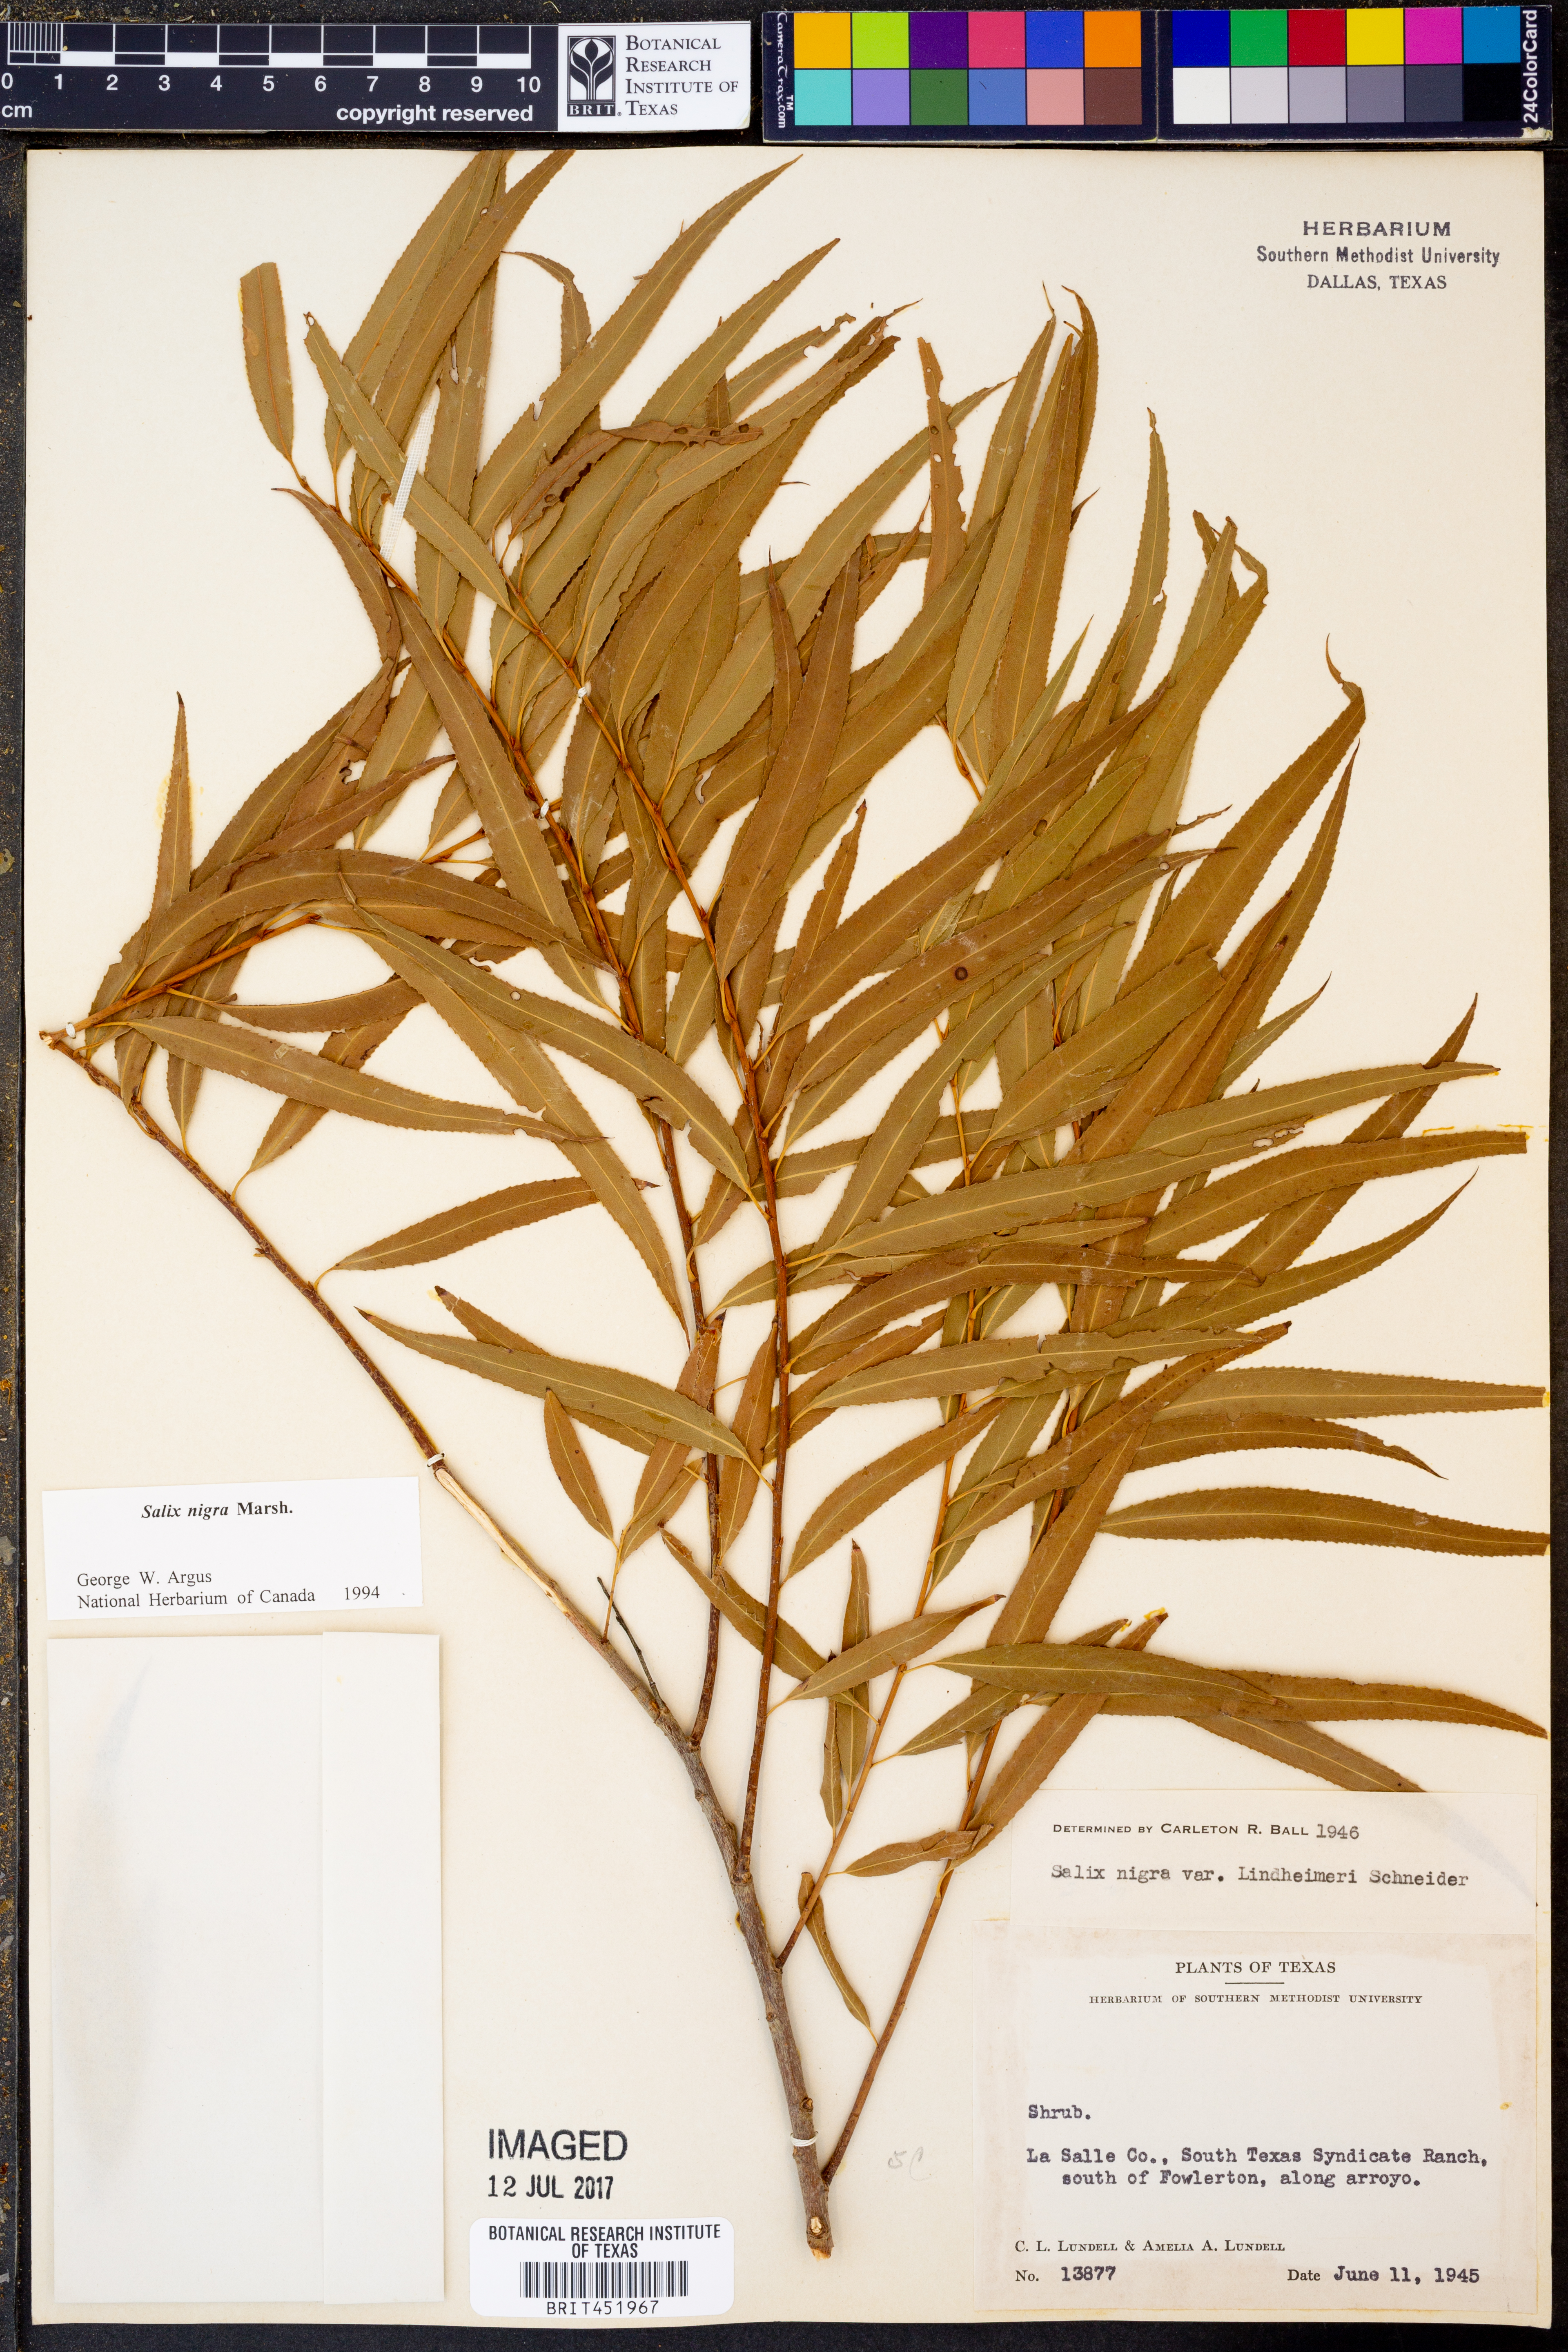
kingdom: Plantae
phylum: Tracheophyta
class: Magnoliopsida
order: Malpighiales
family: Salicaceae
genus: Salix
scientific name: Salix nigra
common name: Black willow
